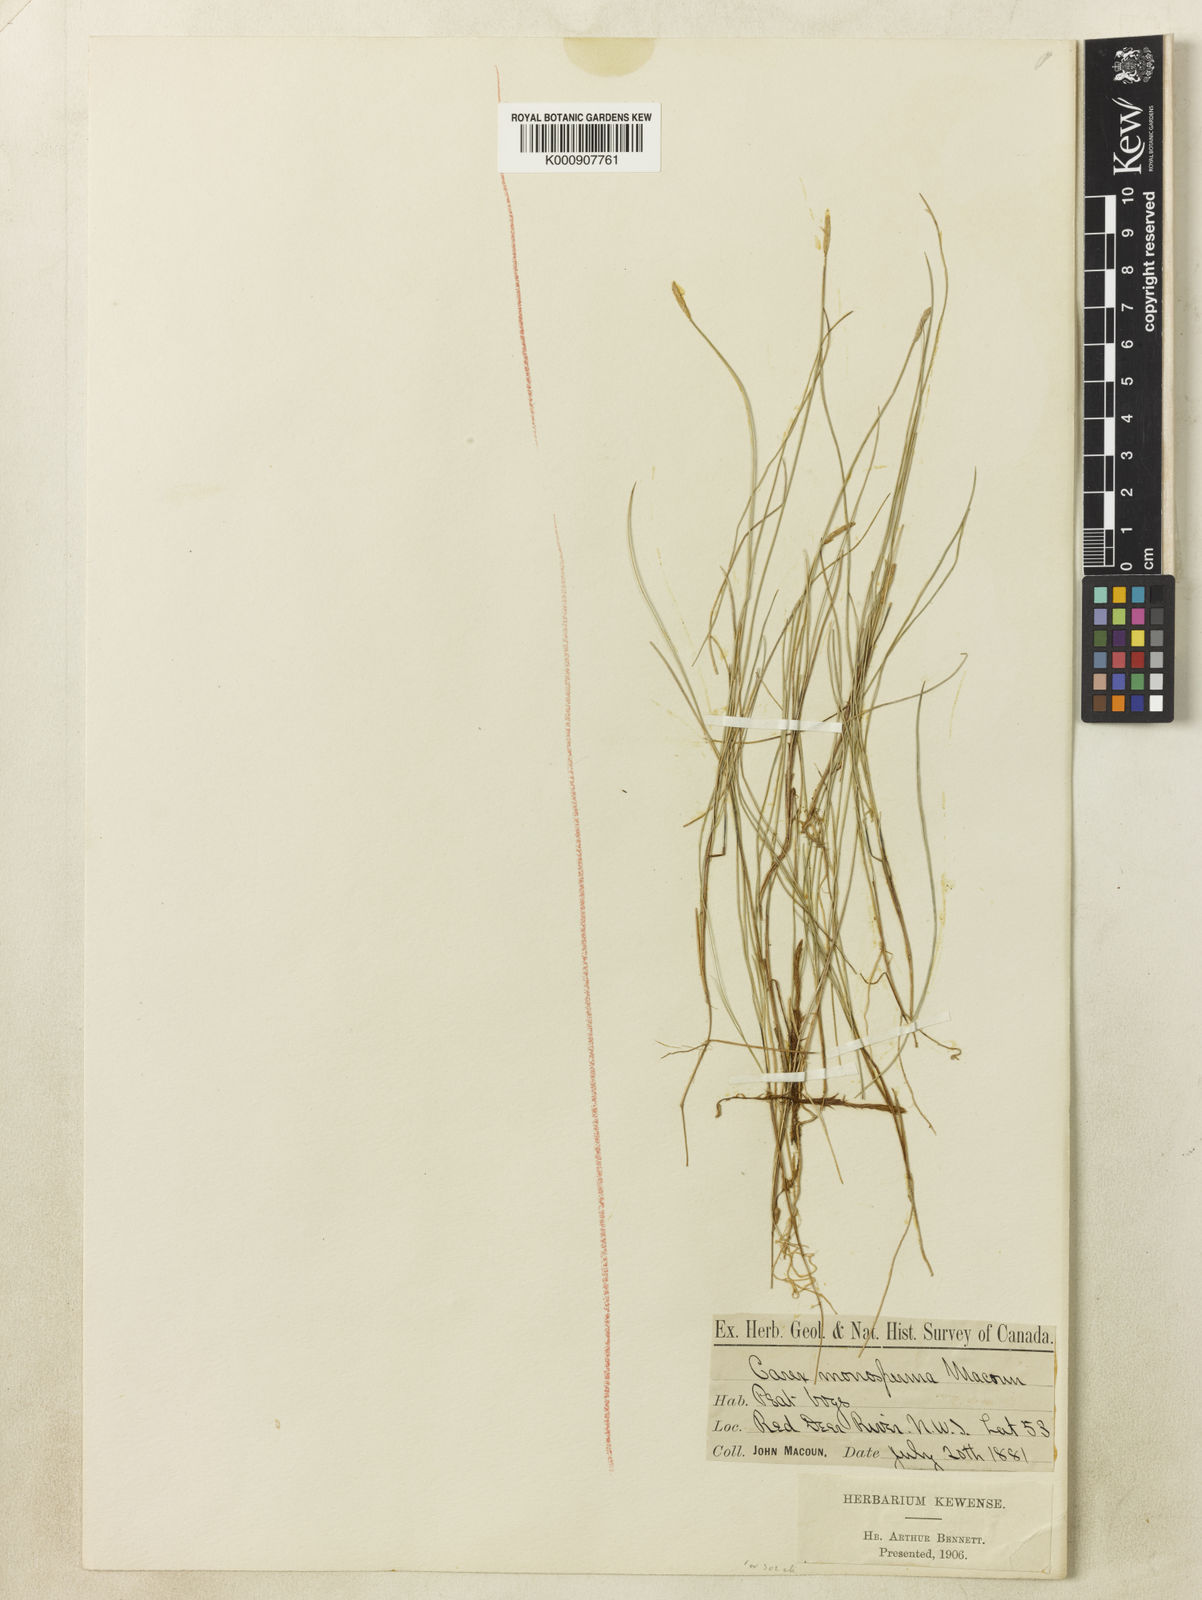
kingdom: Plantae
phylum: Tracheophyta
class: Liliopsida
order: Poales
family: Cyperaceae
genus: Carex
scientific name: Carex
